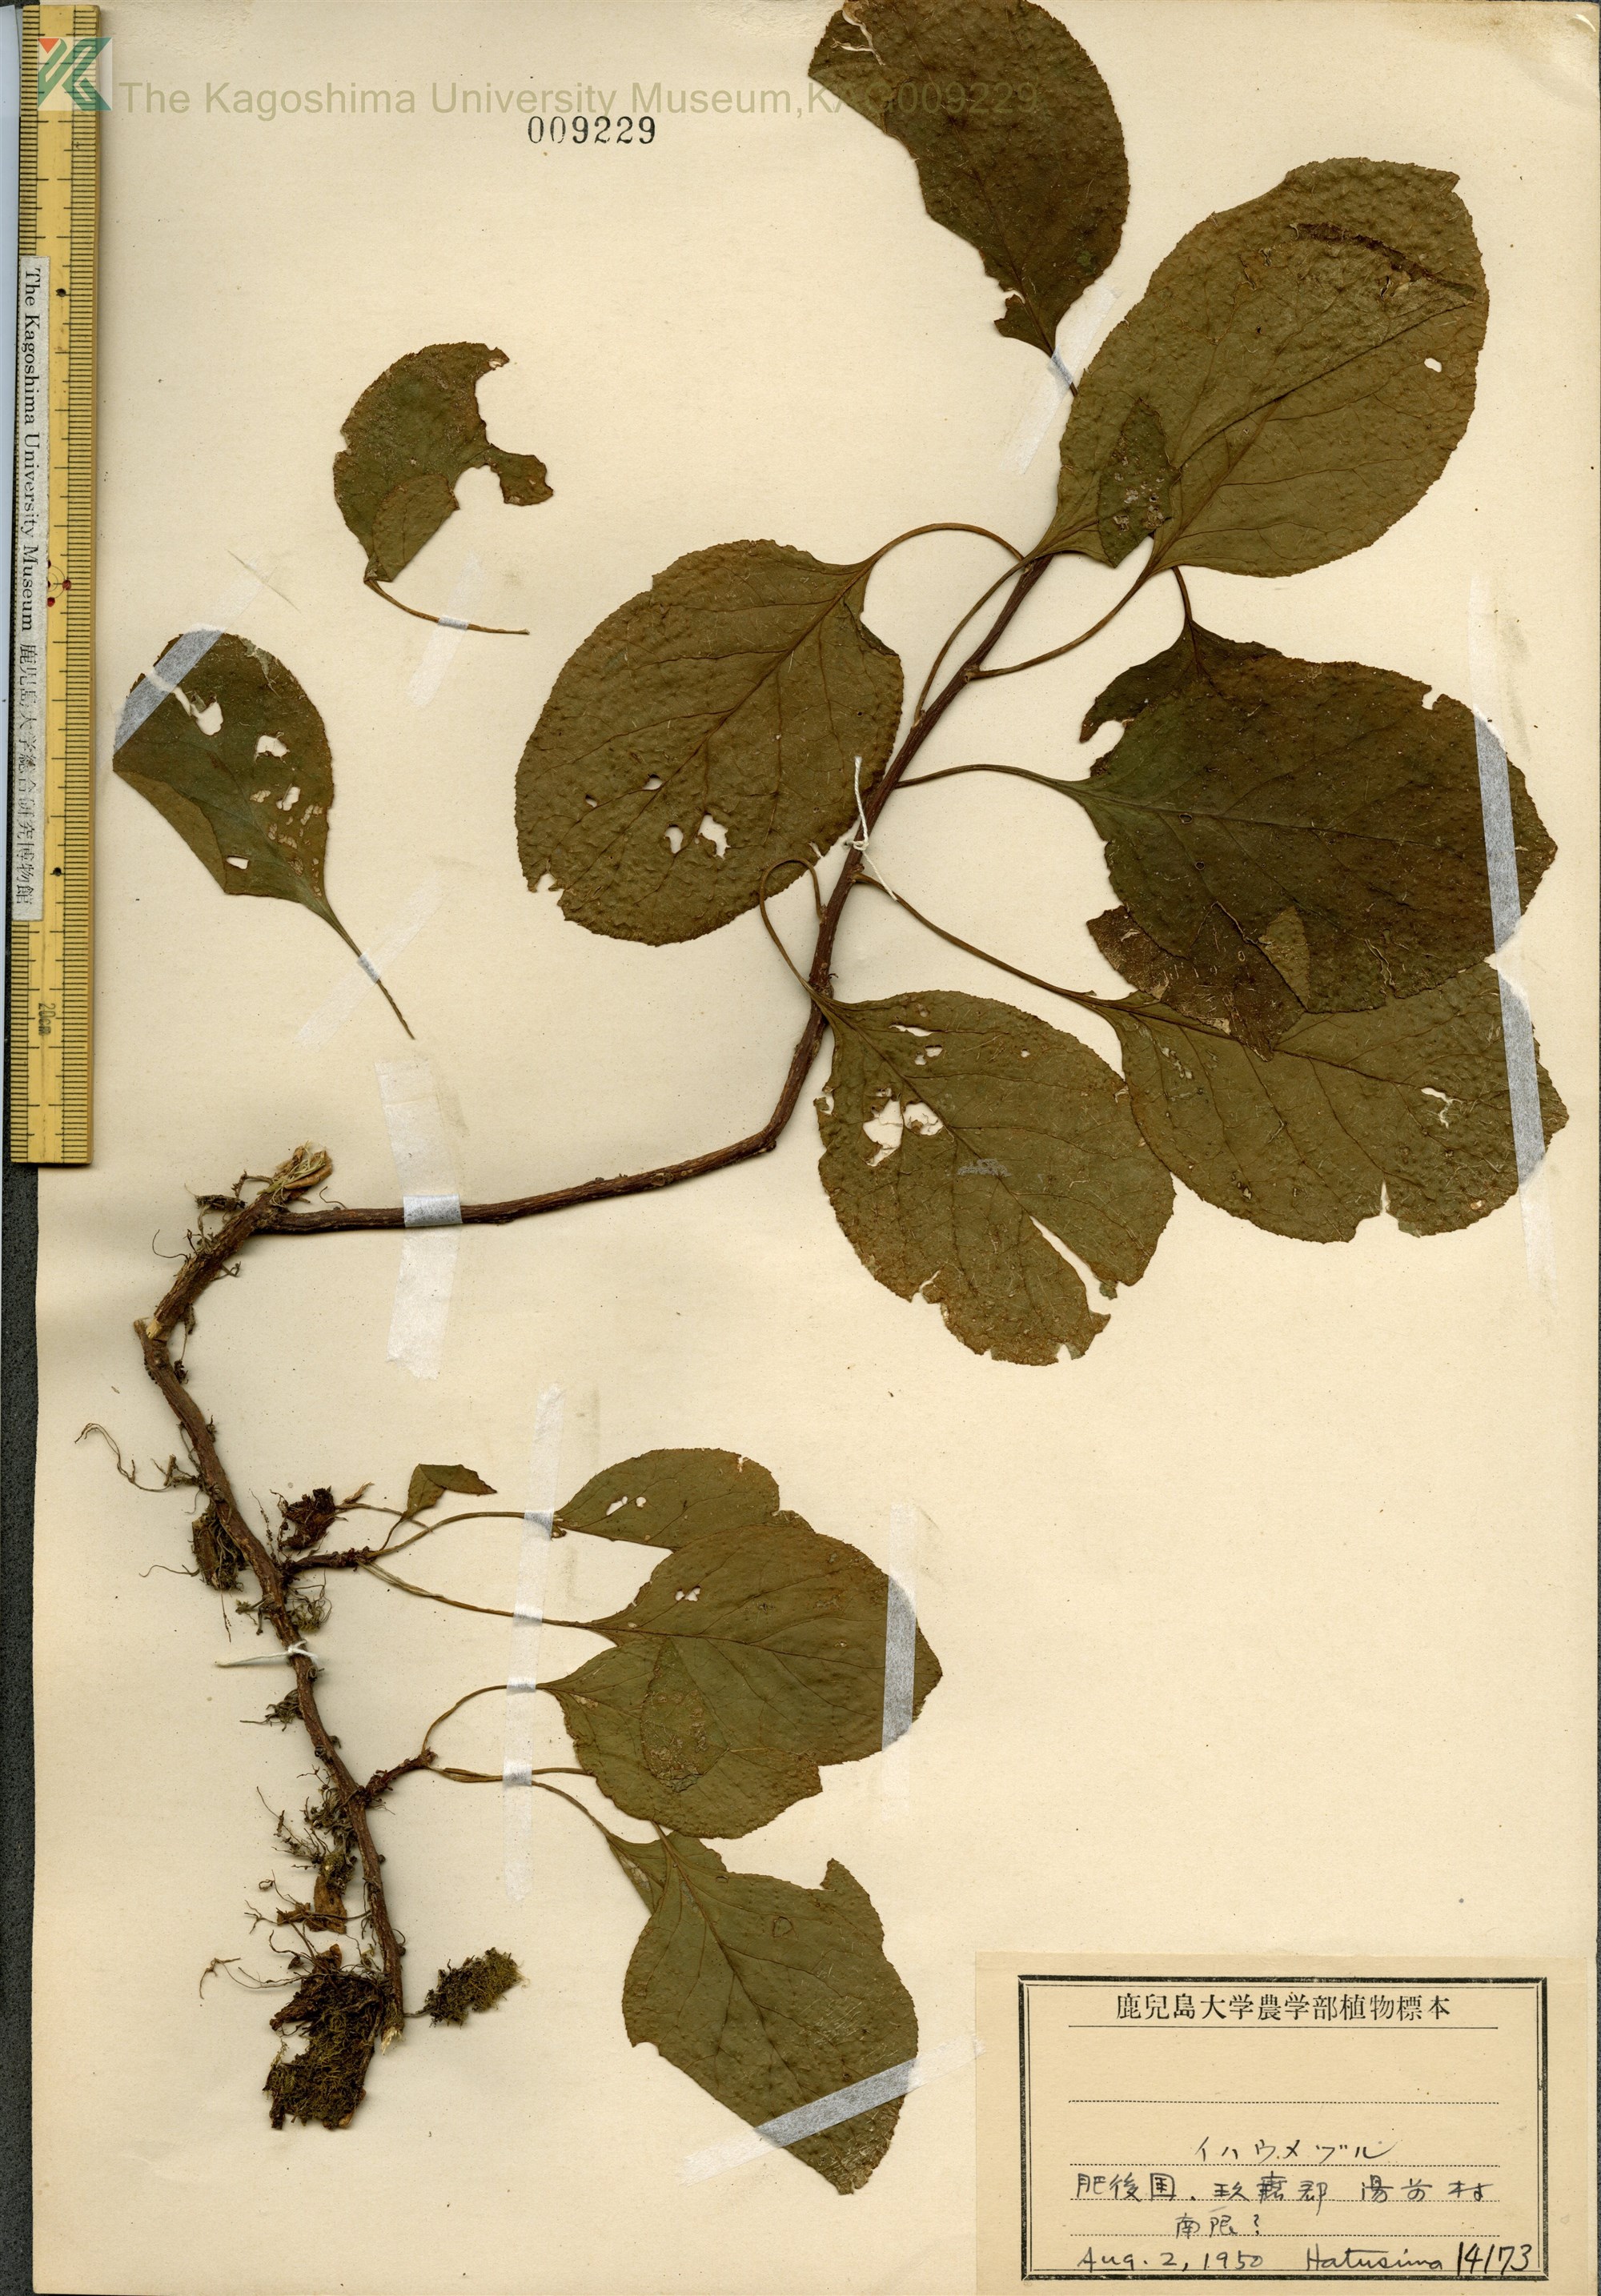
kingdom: Plantae
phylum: Tracheophyta
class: Magnoliopsida
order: Celastrales
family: Celastraceae
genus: Celastrus
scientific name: Celastrus flagellaris
